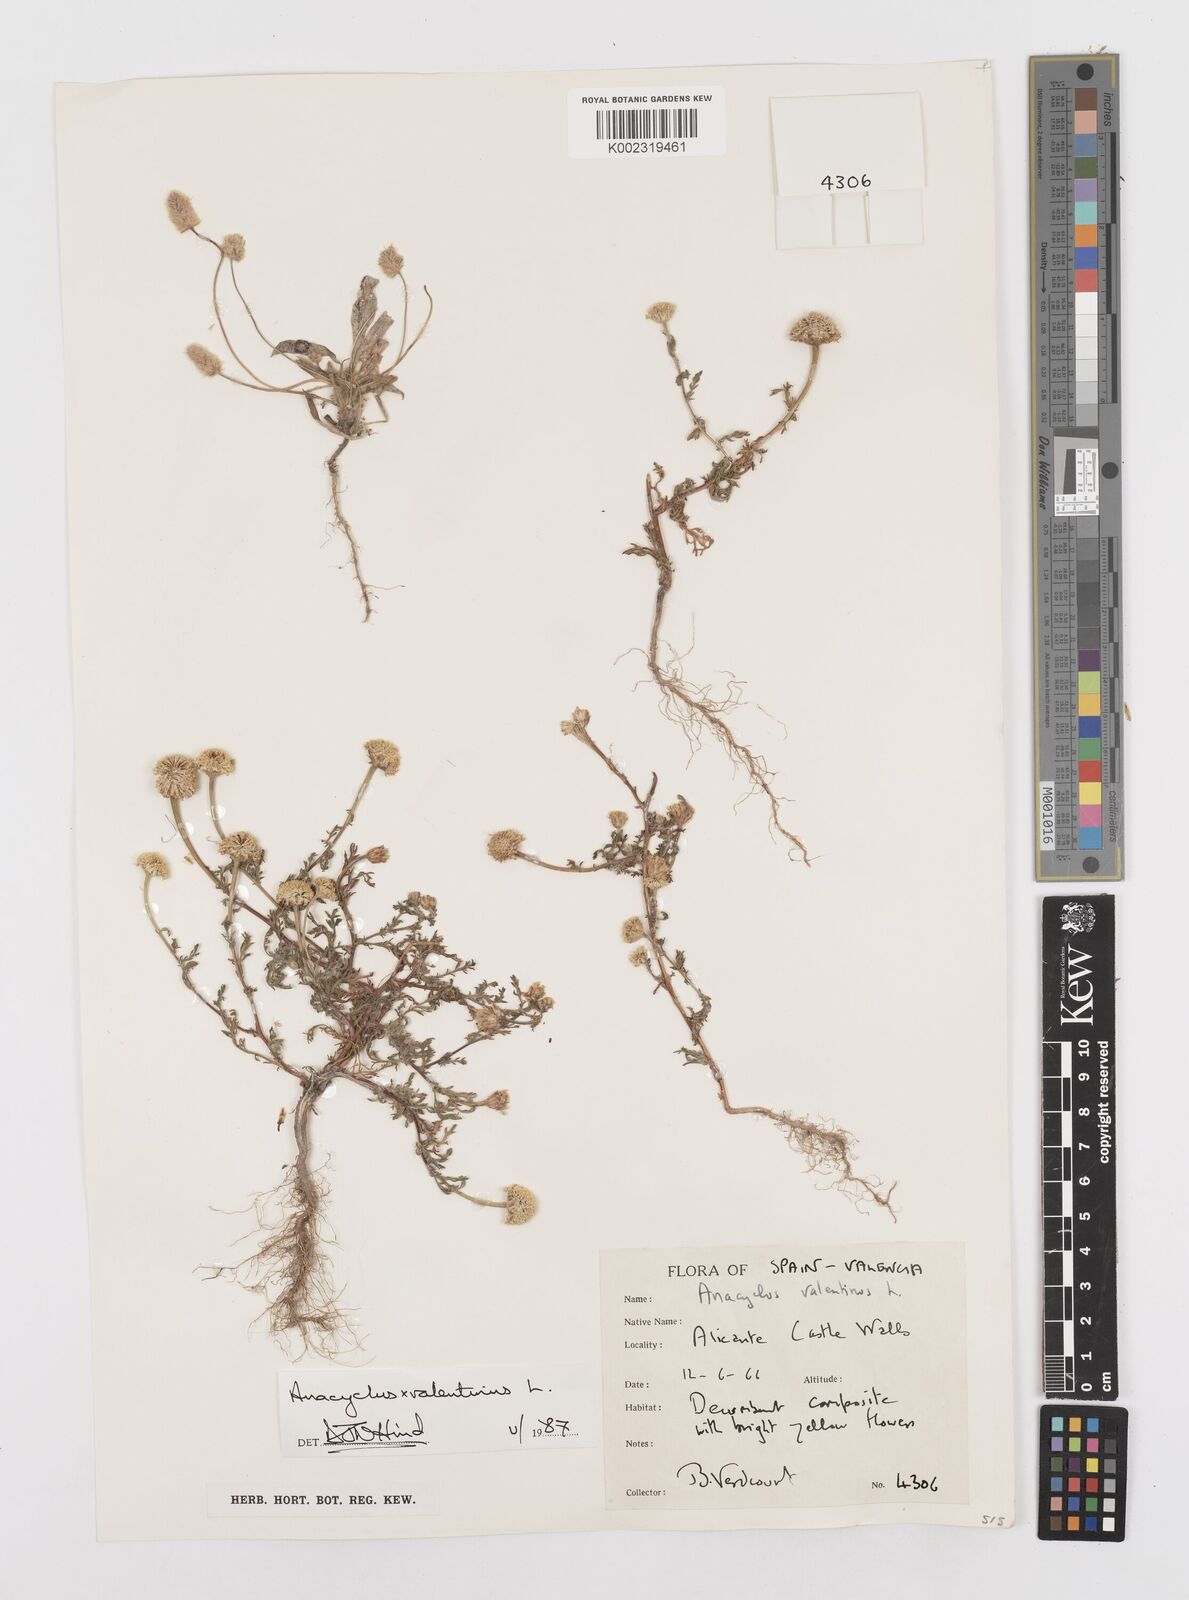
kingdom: Plantae
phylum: Tracheophyta
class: Magnoliopsida
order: Asterales
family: Asteraceae
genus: Anacyclus
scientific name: Anacyclus valentinus
